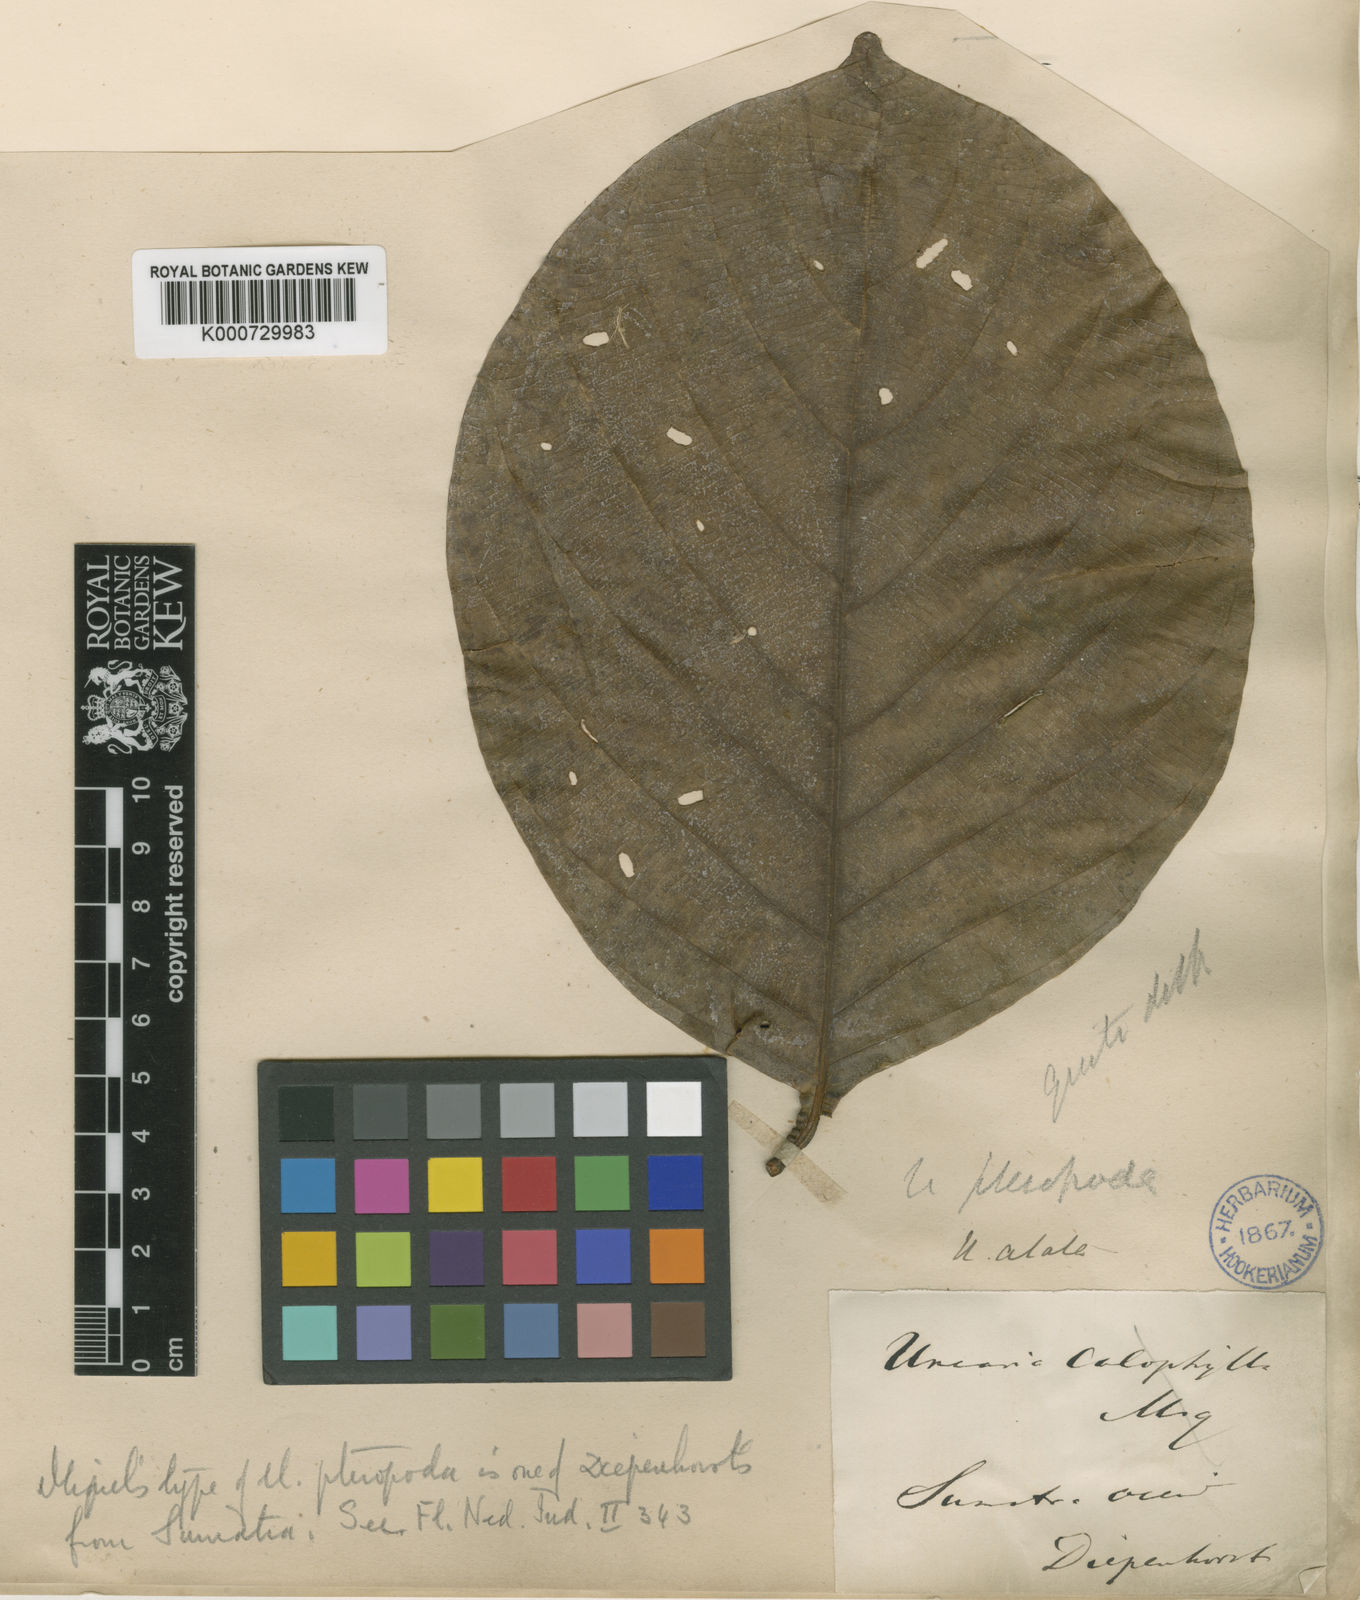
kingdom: Plantae
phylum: Tracheophyta
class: Magnoliopsida
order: Gentianales
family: Rubiaceae
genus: Uncaria
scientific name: Uncaria longiflora
